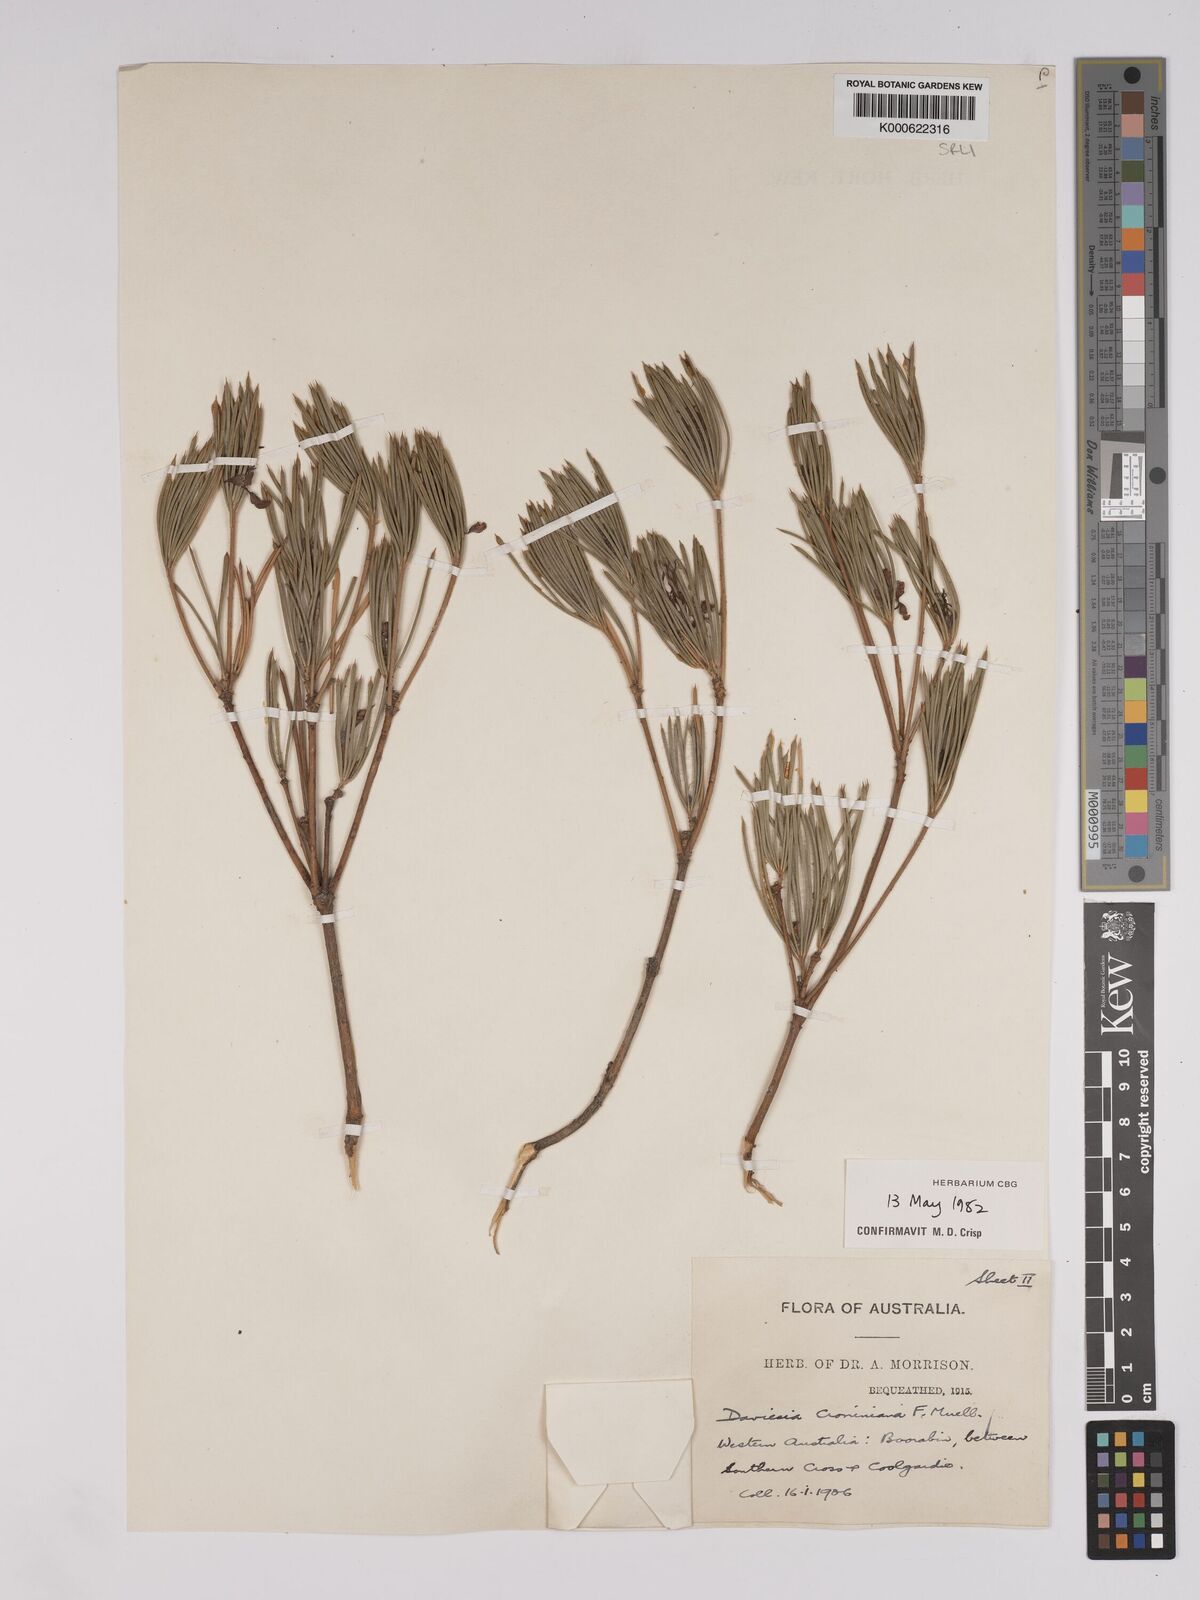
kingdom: Plantae
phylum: Tracheophyta
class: Magnoliopsida
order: Fabales
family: Fabaceae
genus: Daviesia
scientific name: Daviesia croniniana
